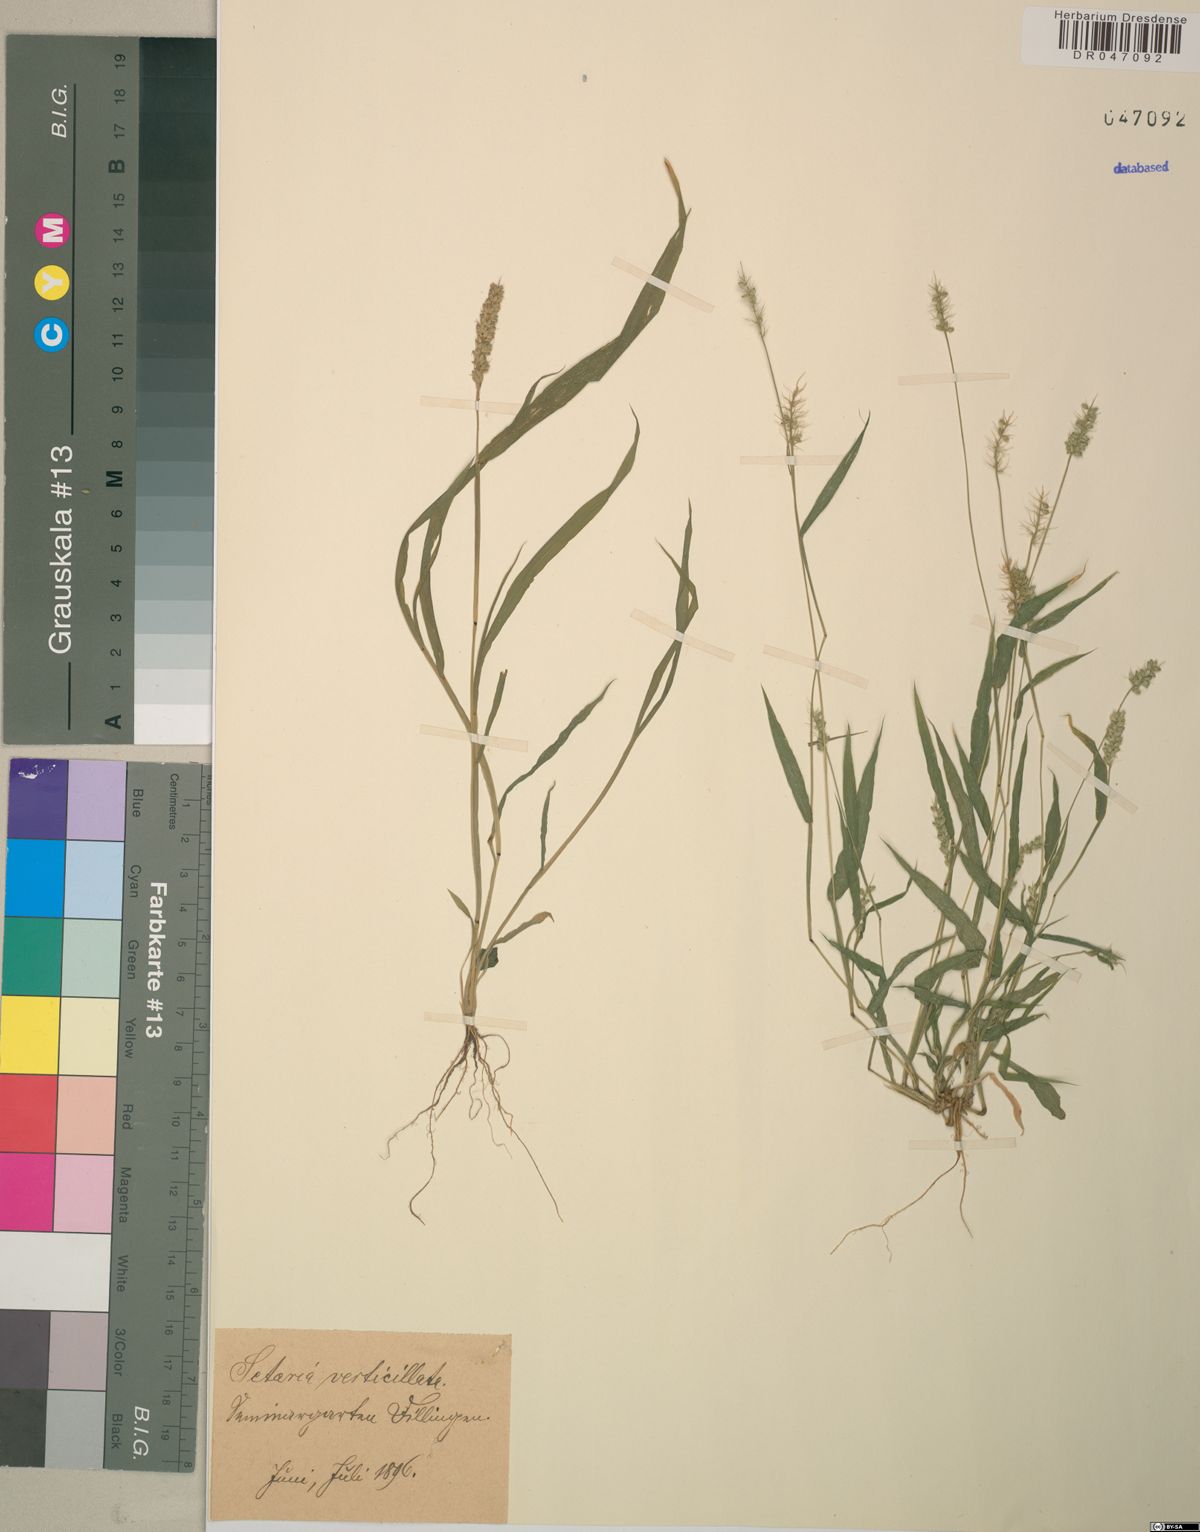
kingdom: Plantae
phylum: Tracheophyta
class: Liliopsida
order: Poales
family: Poaceae
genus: Setaria
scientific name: Setaria verticillata
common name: Hooked bristlegrass
